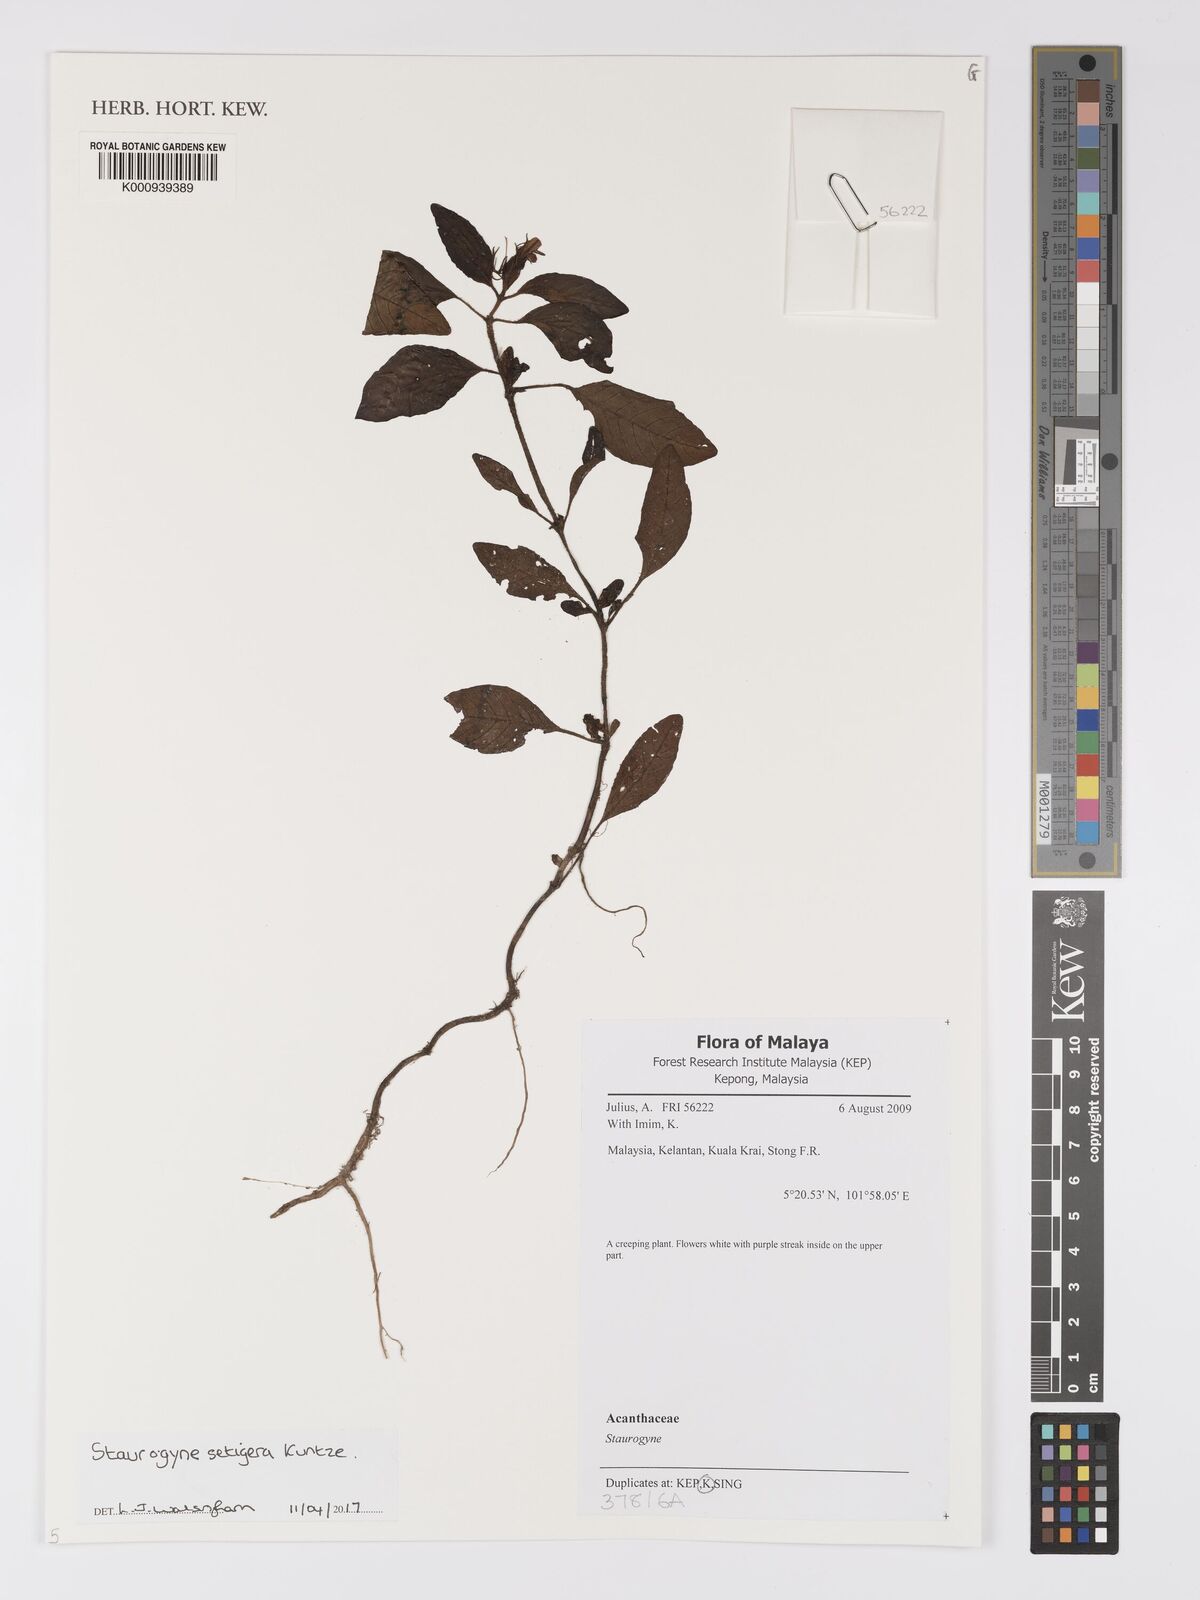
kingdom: Plantae
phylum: Tracheophyta
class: Magnoliopsida
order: Lamiales
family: Acanthaceae
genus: Staurogyne
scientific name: Staurogyne setigera
